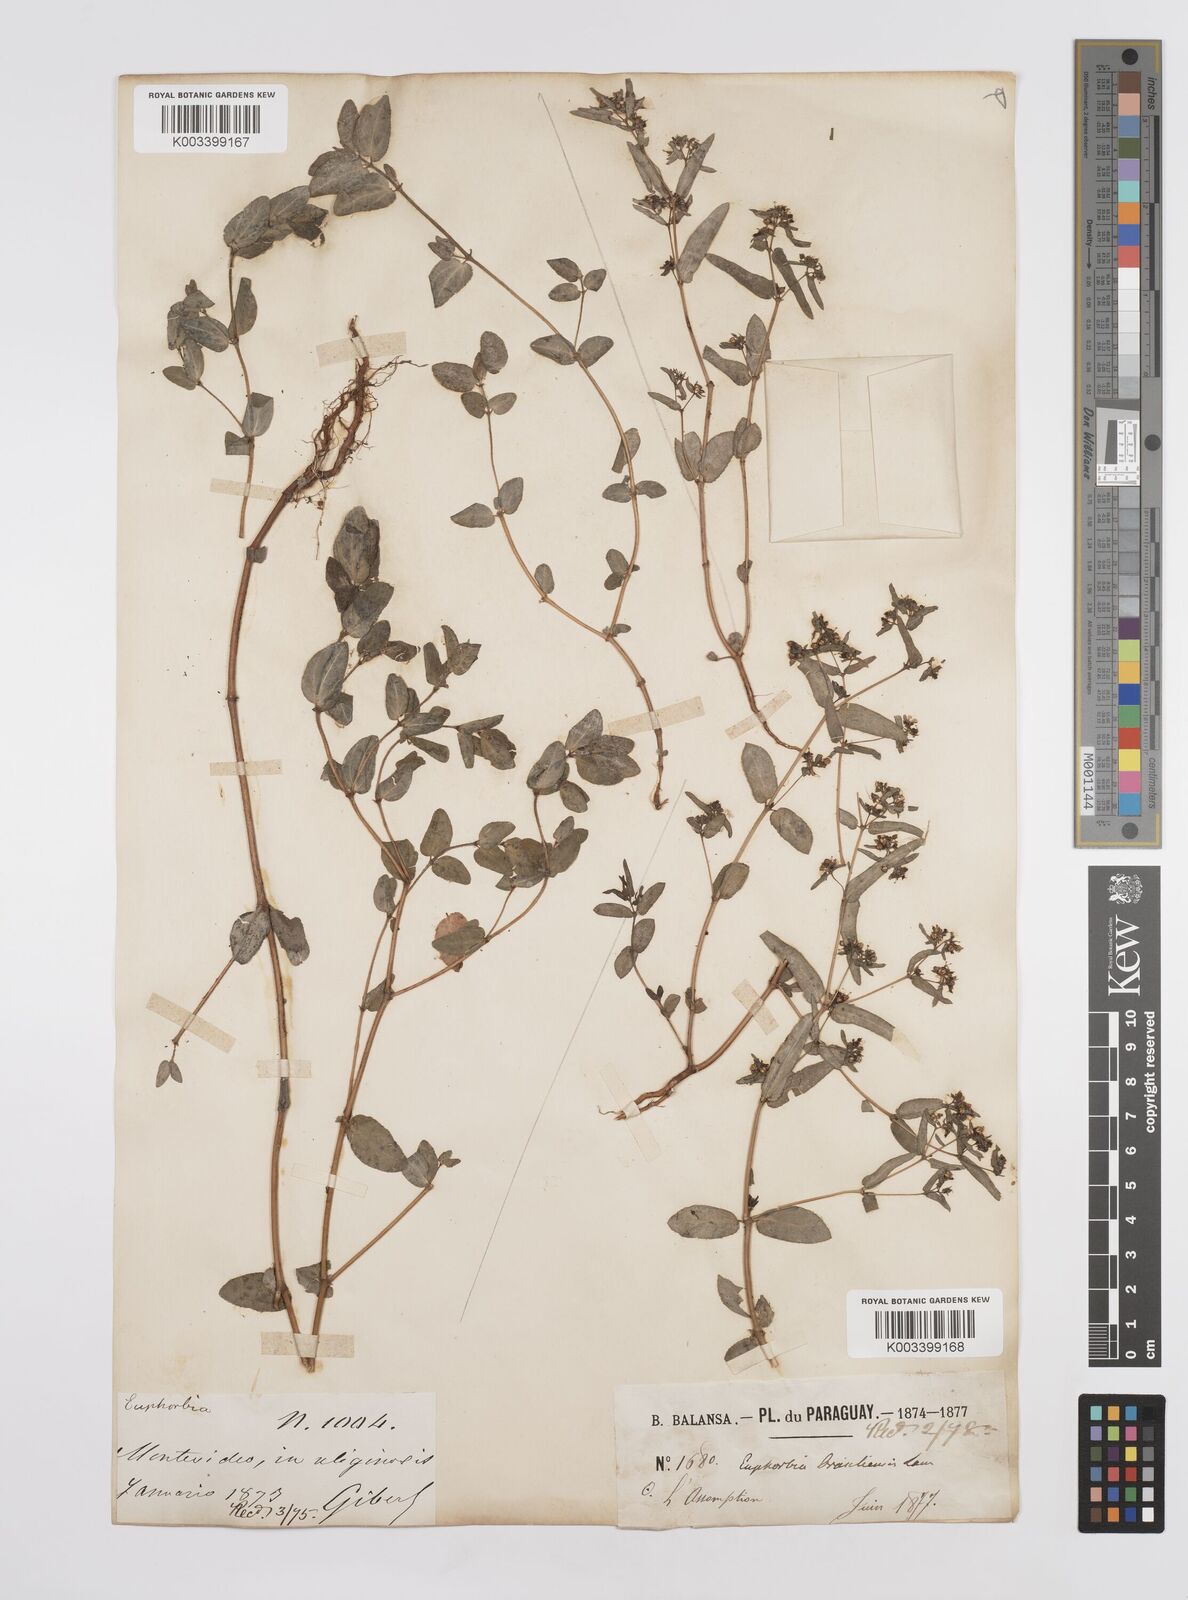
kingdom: Plantae
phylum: Tracheophyta
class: Magnoliopsida
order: Malpighiales
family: Euphorbiaceae
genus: Euphorbia
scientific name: Euphorbia hyssopifolia
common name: Hyssopleaf sandmat
